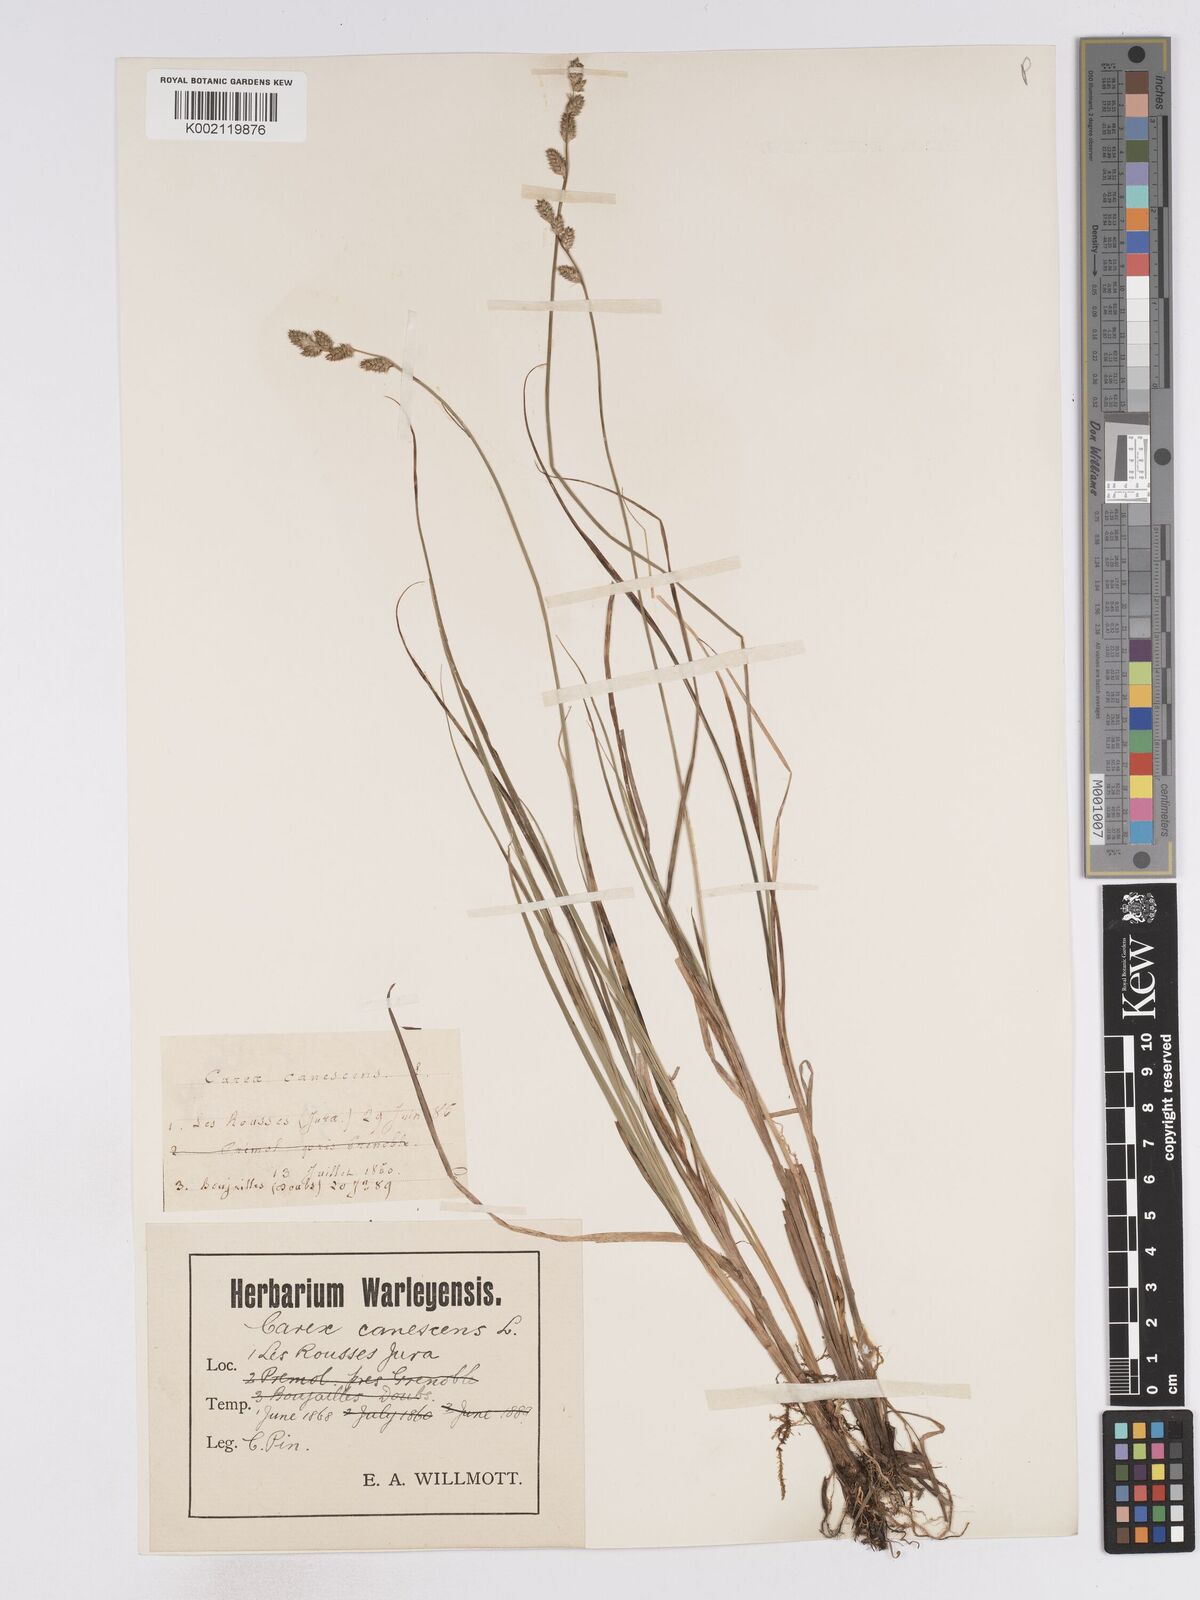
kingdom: Plantae
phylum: Tracheophyta
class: Liliopsida
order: Poales
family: Cyperaceae
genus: Carex
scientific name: Carex curta
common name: White sedge
